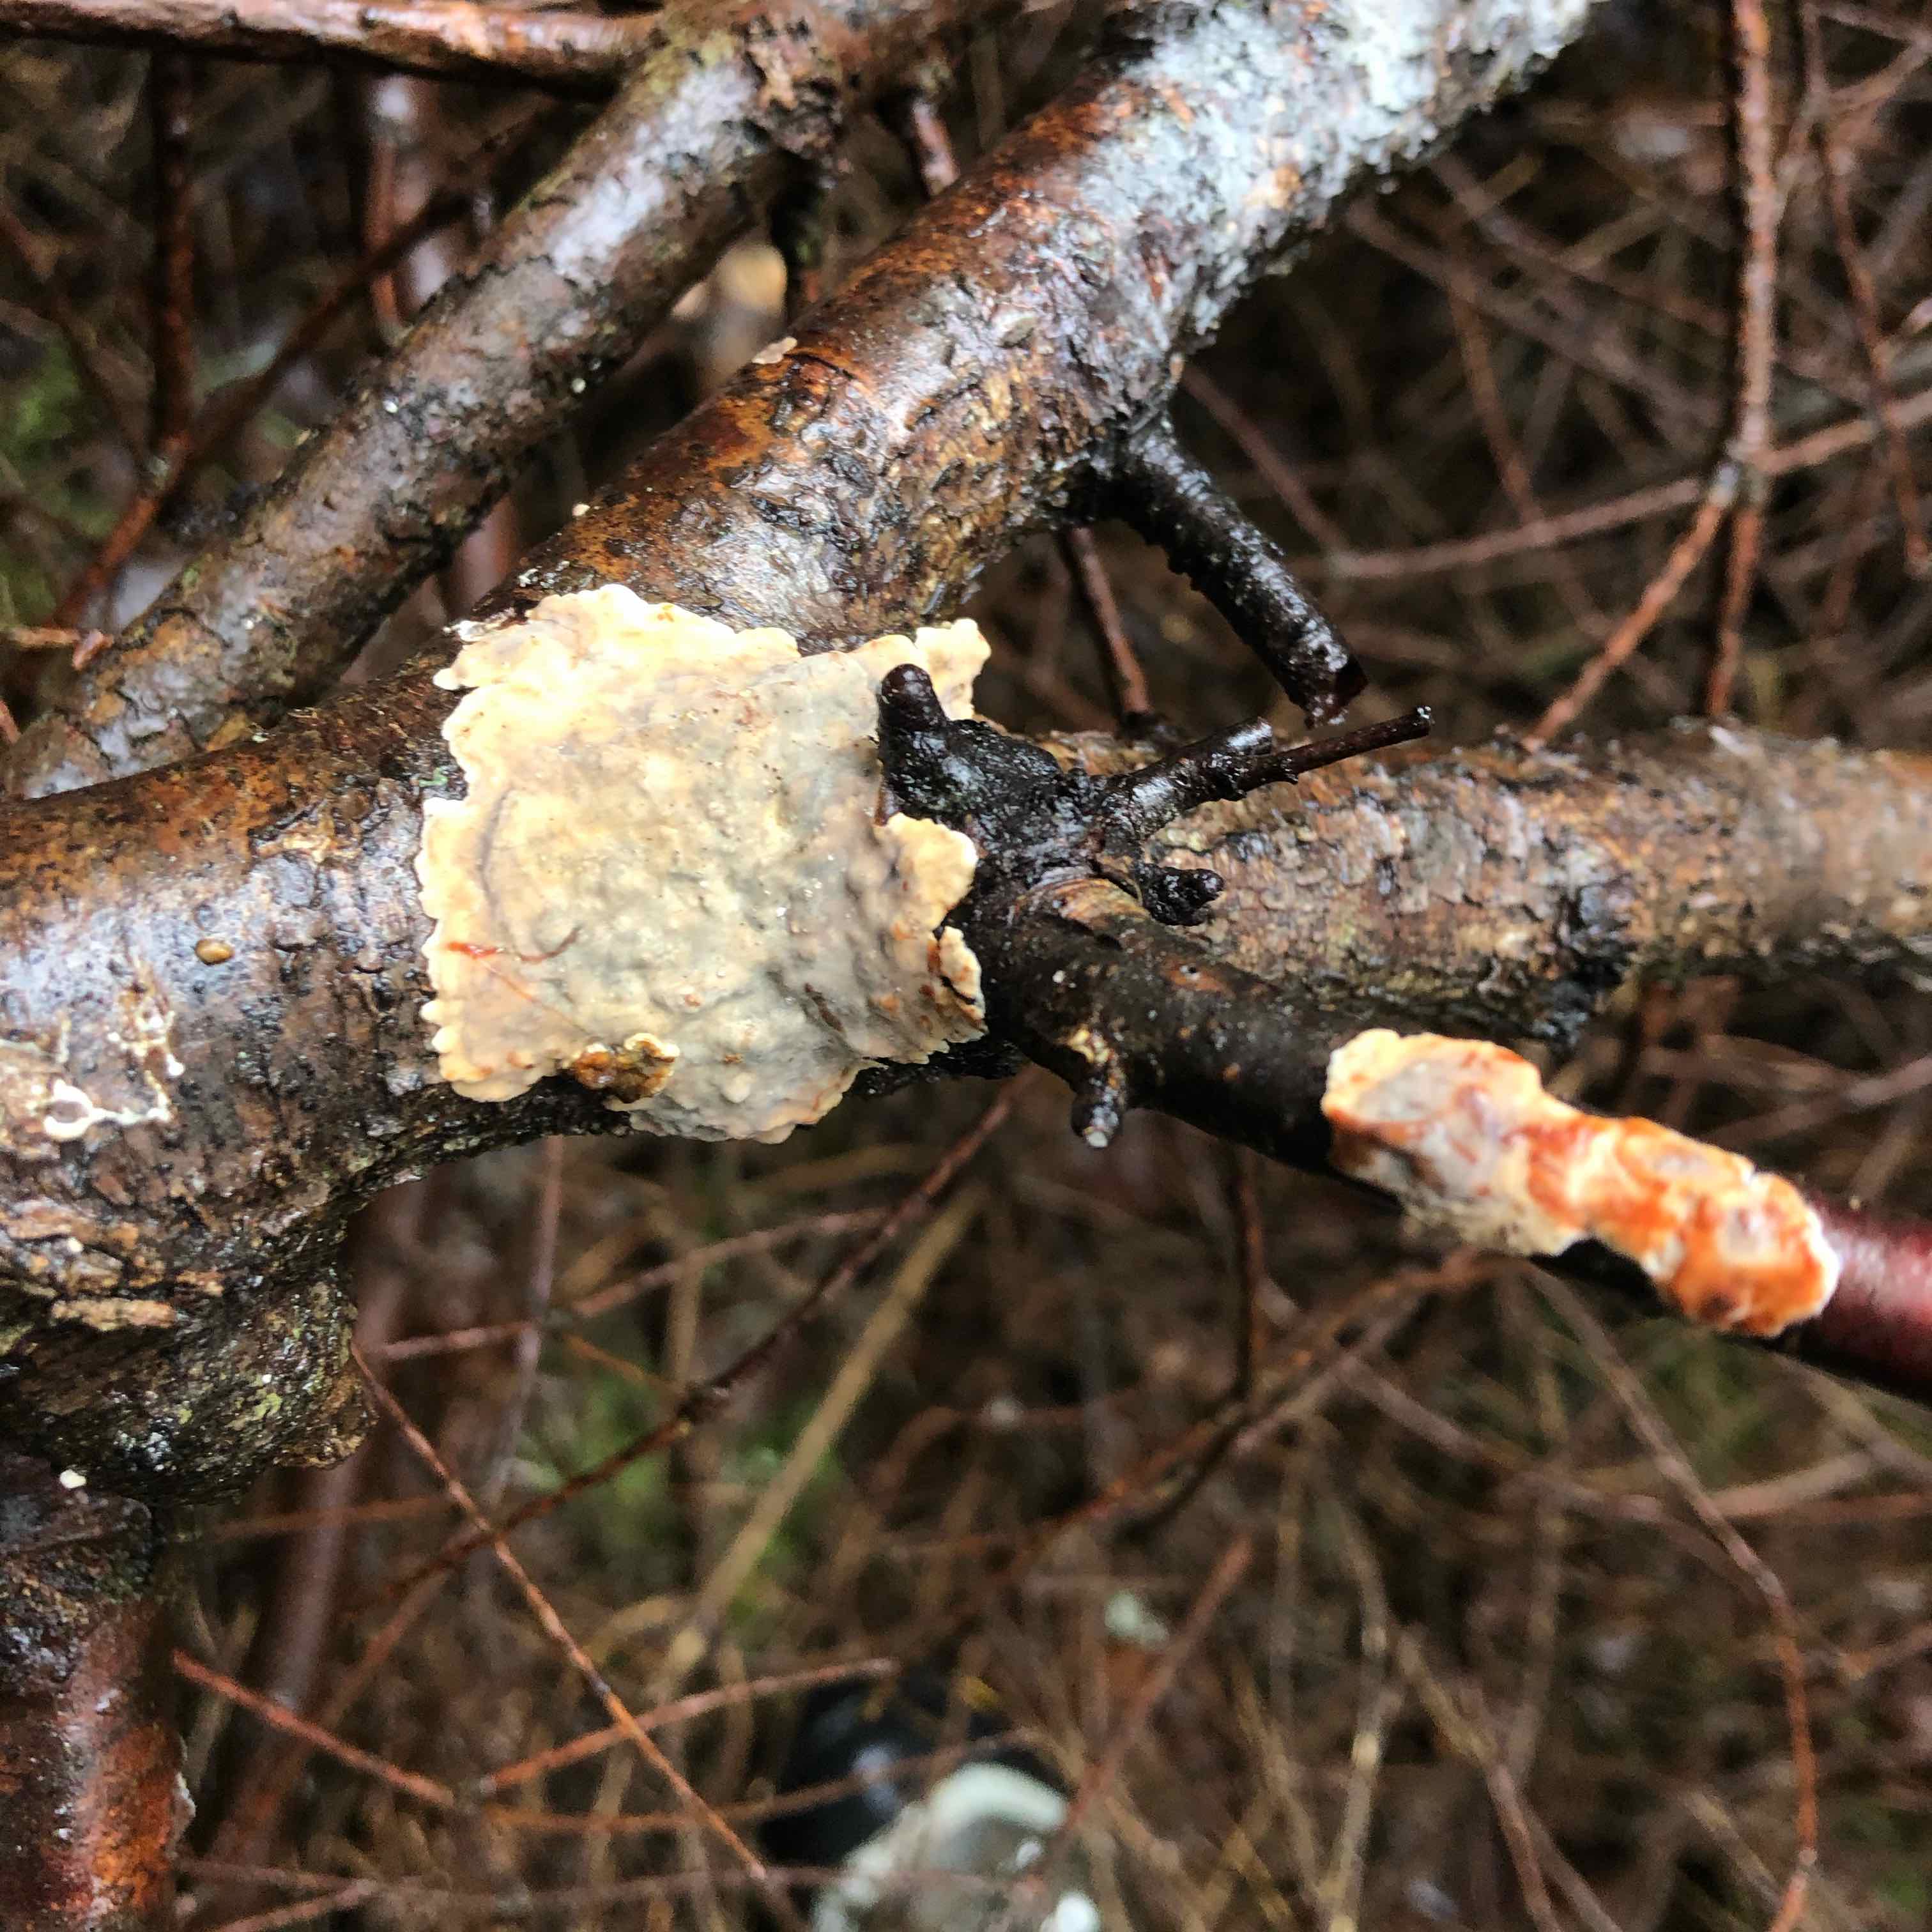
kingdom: Fungi
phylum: Basidiomycota
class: Agaricomycetes
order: Russulales
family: Stereaceae
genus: Stereum
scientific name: Stereum rugosum
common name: rynket lædersvamp
